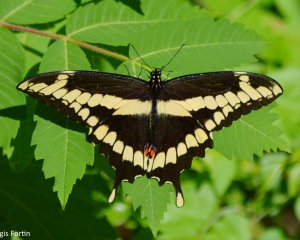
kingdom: Animalia
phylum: Arthropoda
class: Insecta
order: Lepidoptera
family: Papilionidae
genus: Papilio
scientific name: Papilio cresphontes
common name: Eastern Giant Swallowtail
